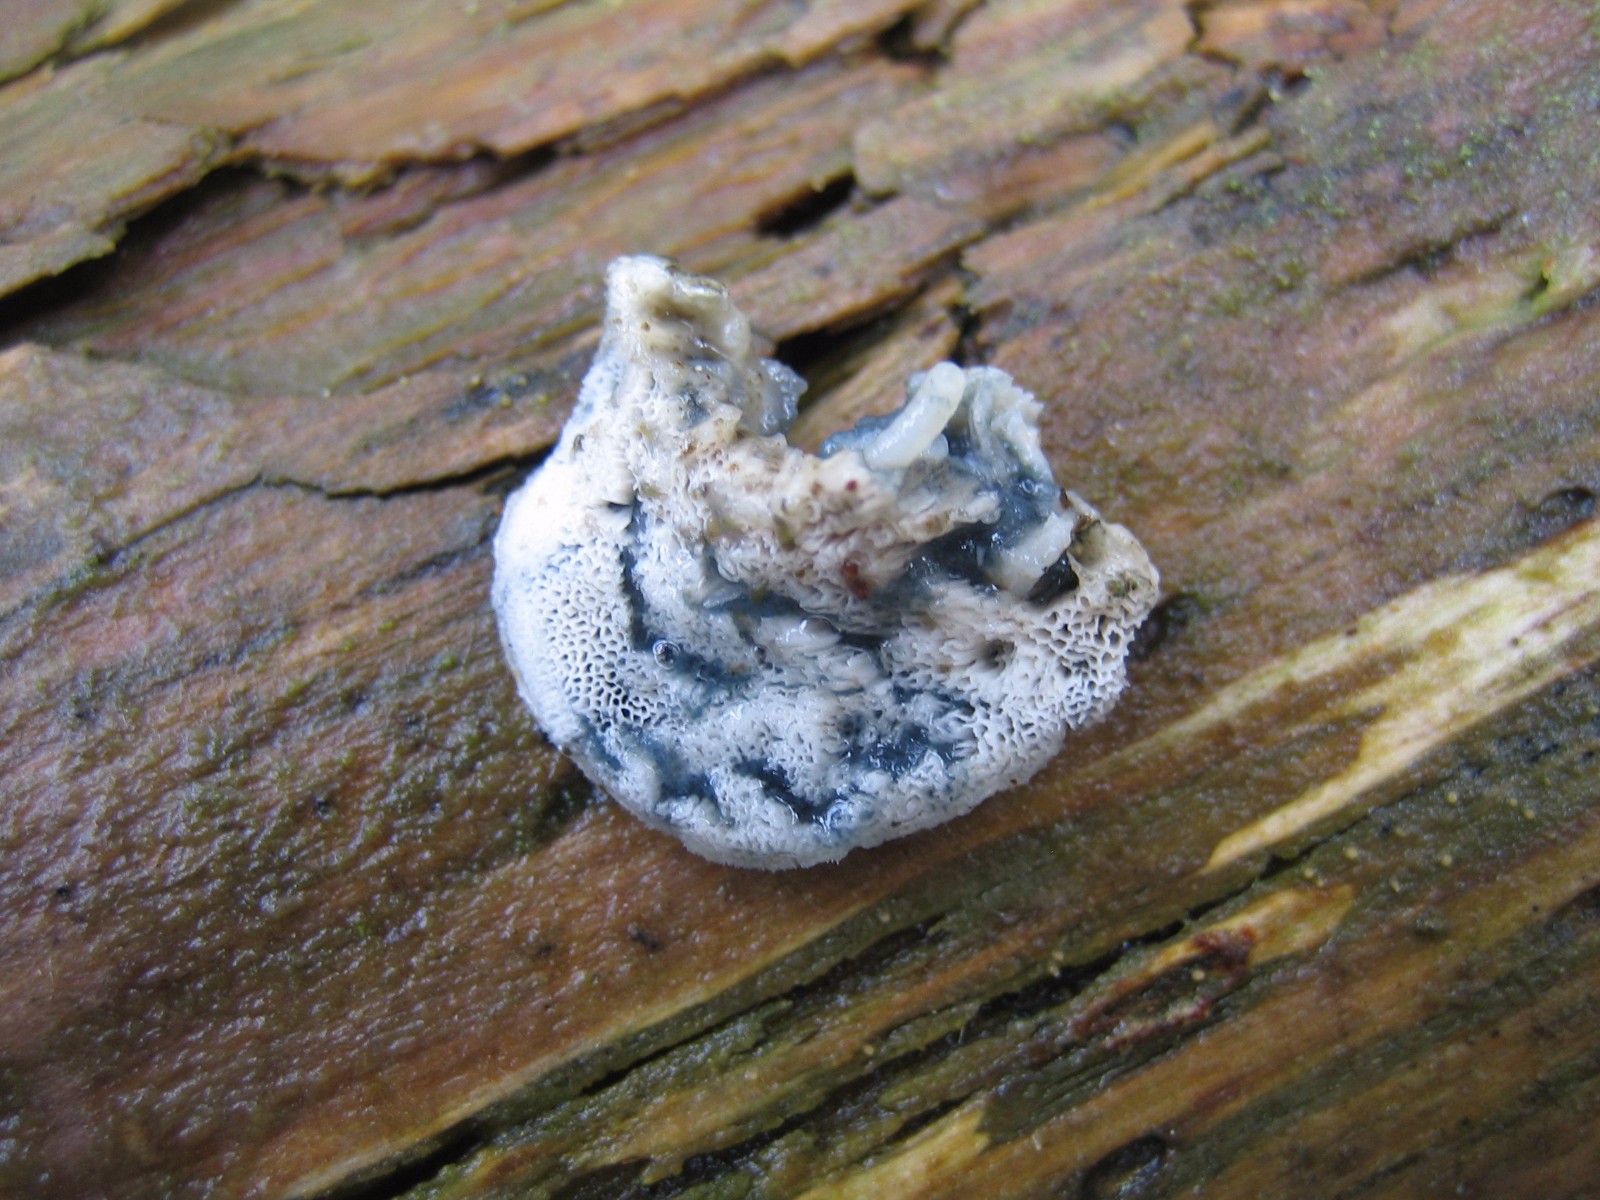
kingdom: Fungi
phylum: Basidiomycota
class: Agaricomycetes
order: Polyporales
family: Polyporaceae
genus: Cyanosporus
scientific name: Cyanosporus caesius
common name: blålig kødporesvamp
